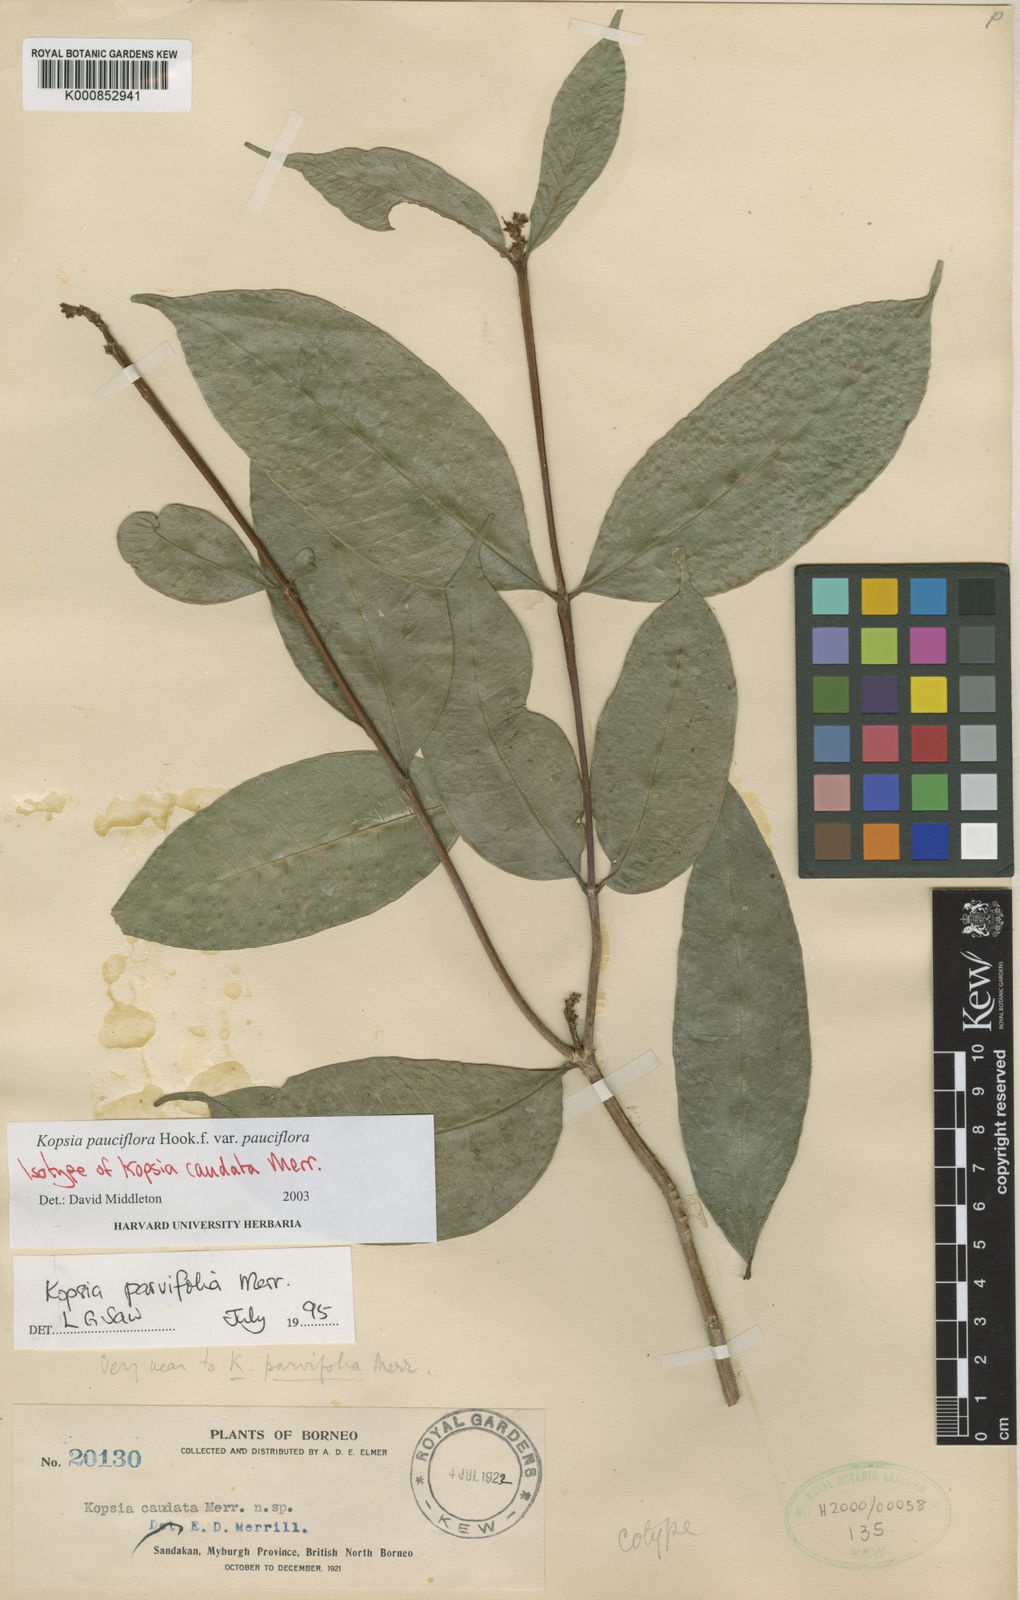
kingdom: Plantae
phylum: Tracheophyta
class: Magnoliopsida
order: Gentianales
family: Apocynaceae
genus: Kopsia
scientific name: Kopsia pauciflora
